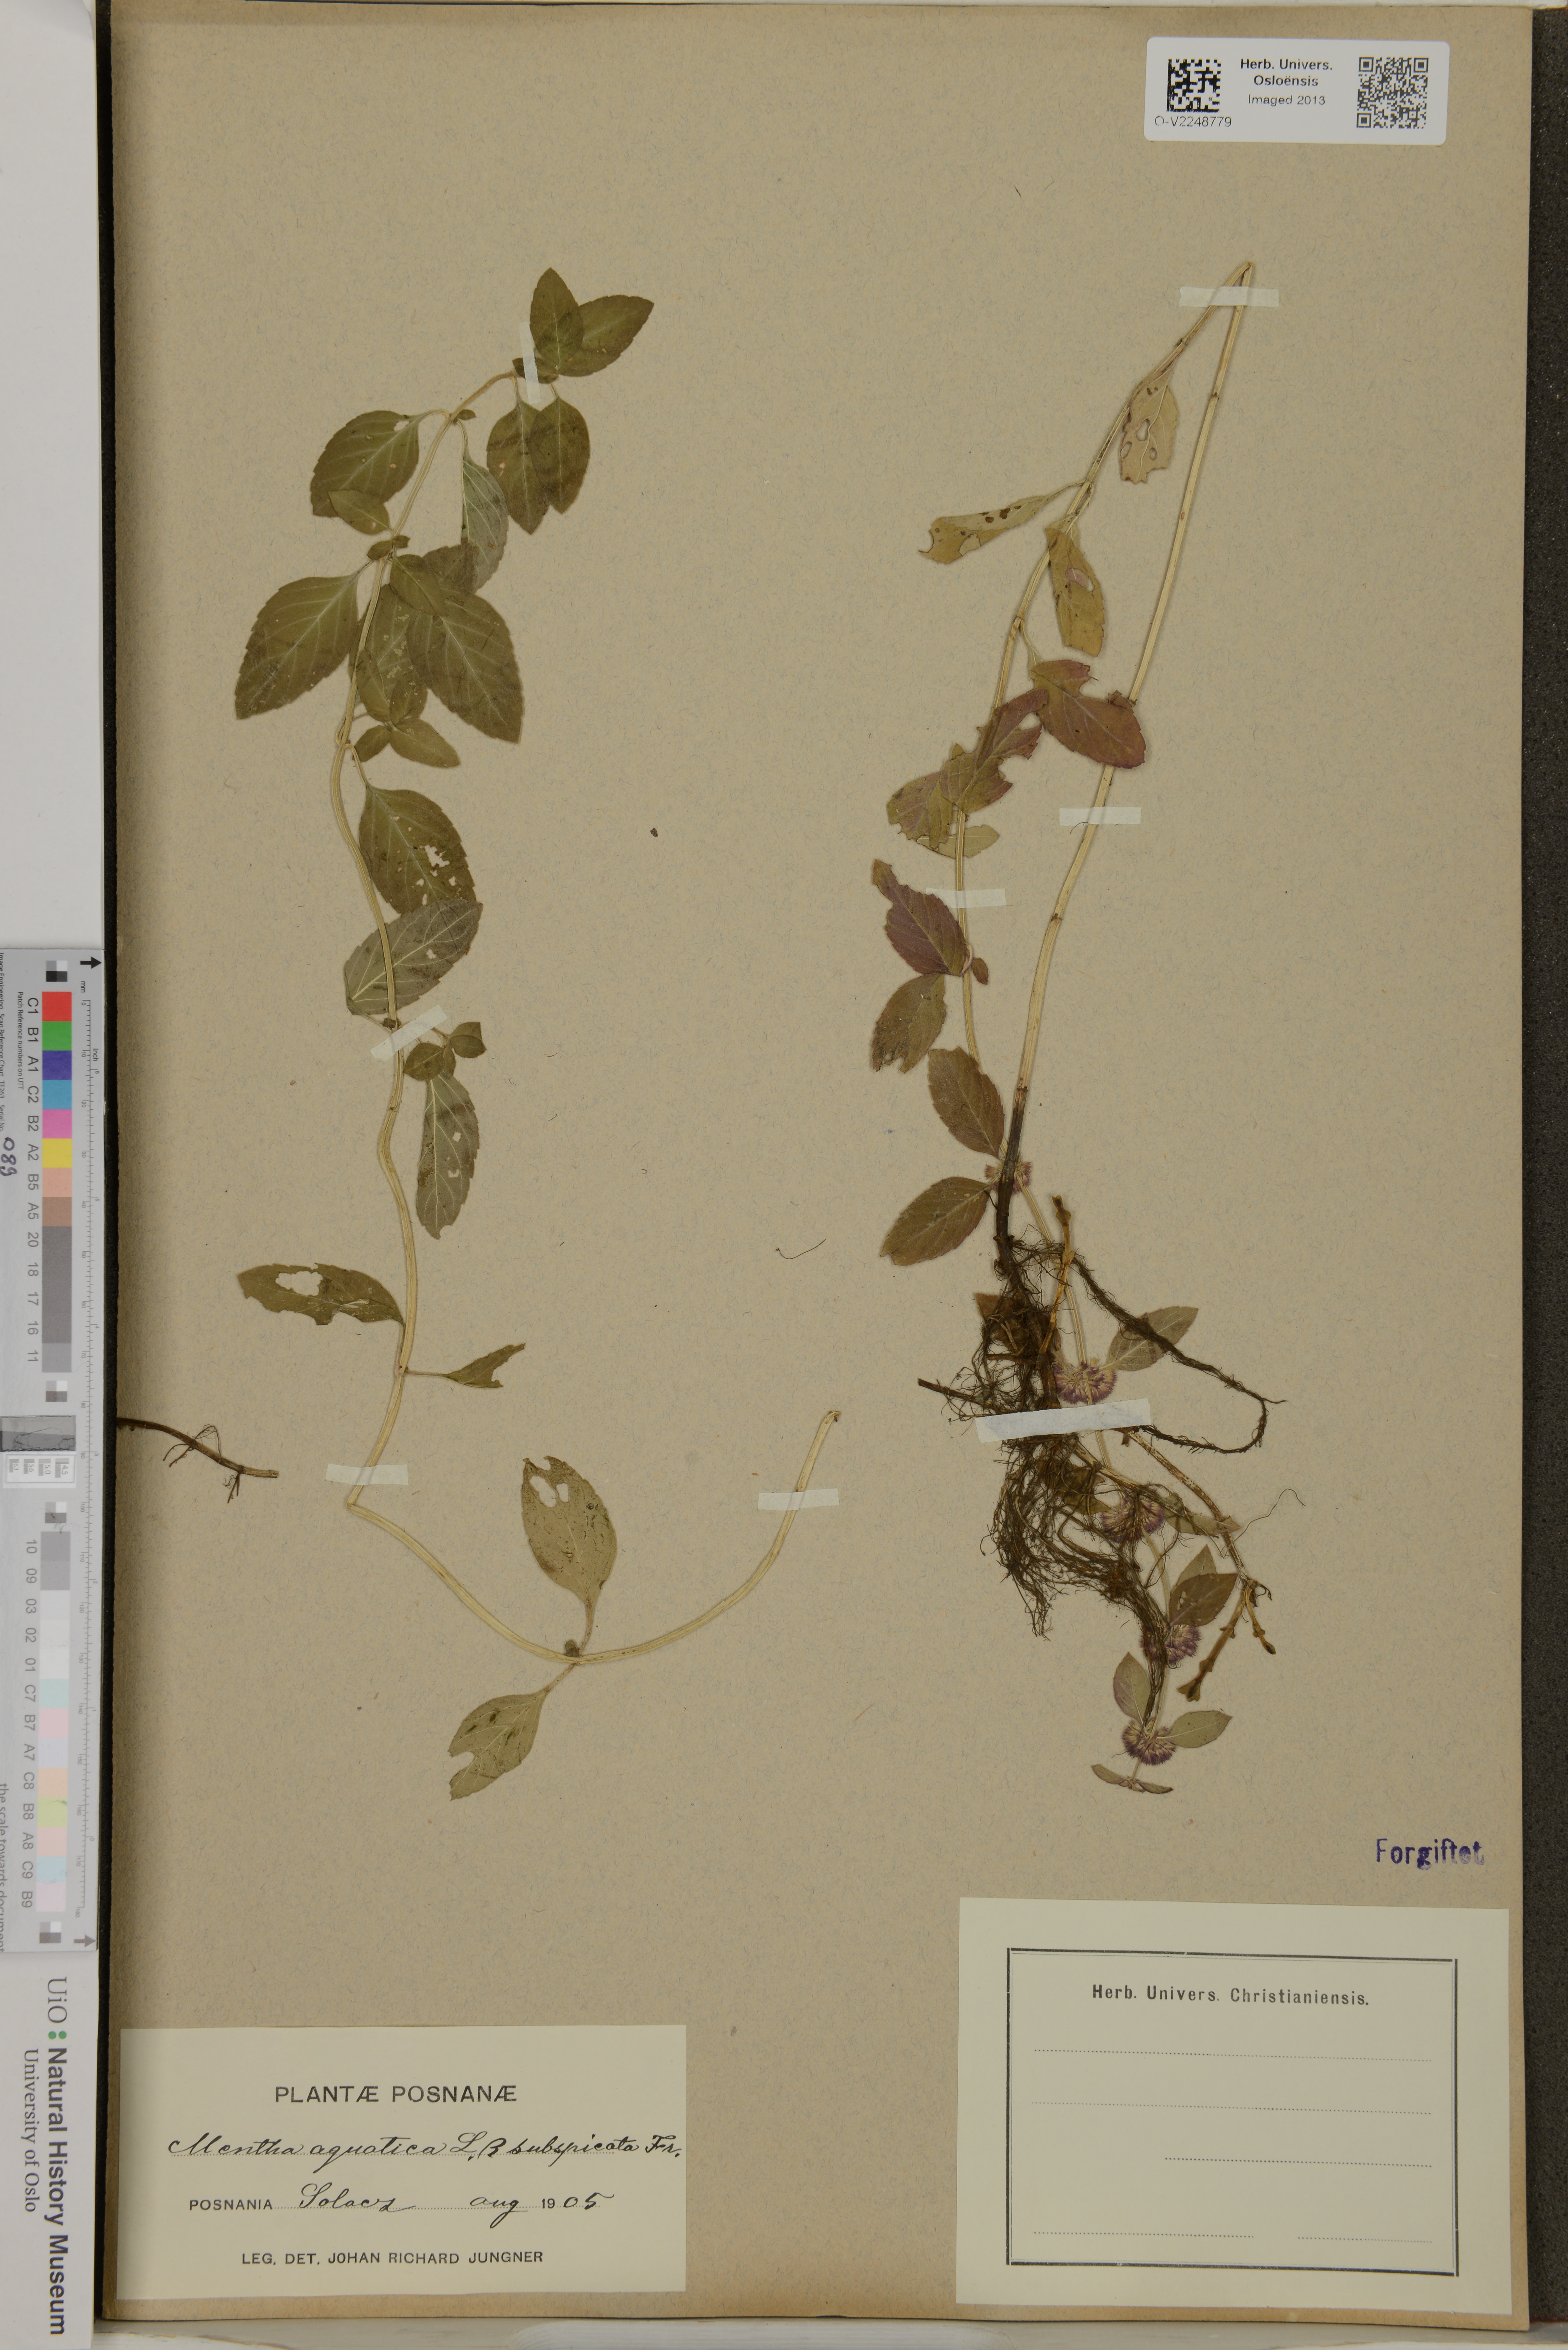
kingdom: Plantae
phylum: Tracheophyta
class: Magnoliopsida
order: Lamiales
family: Lamiaceae
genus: Mentha
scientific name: Mentha aquatica
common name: Water mint
